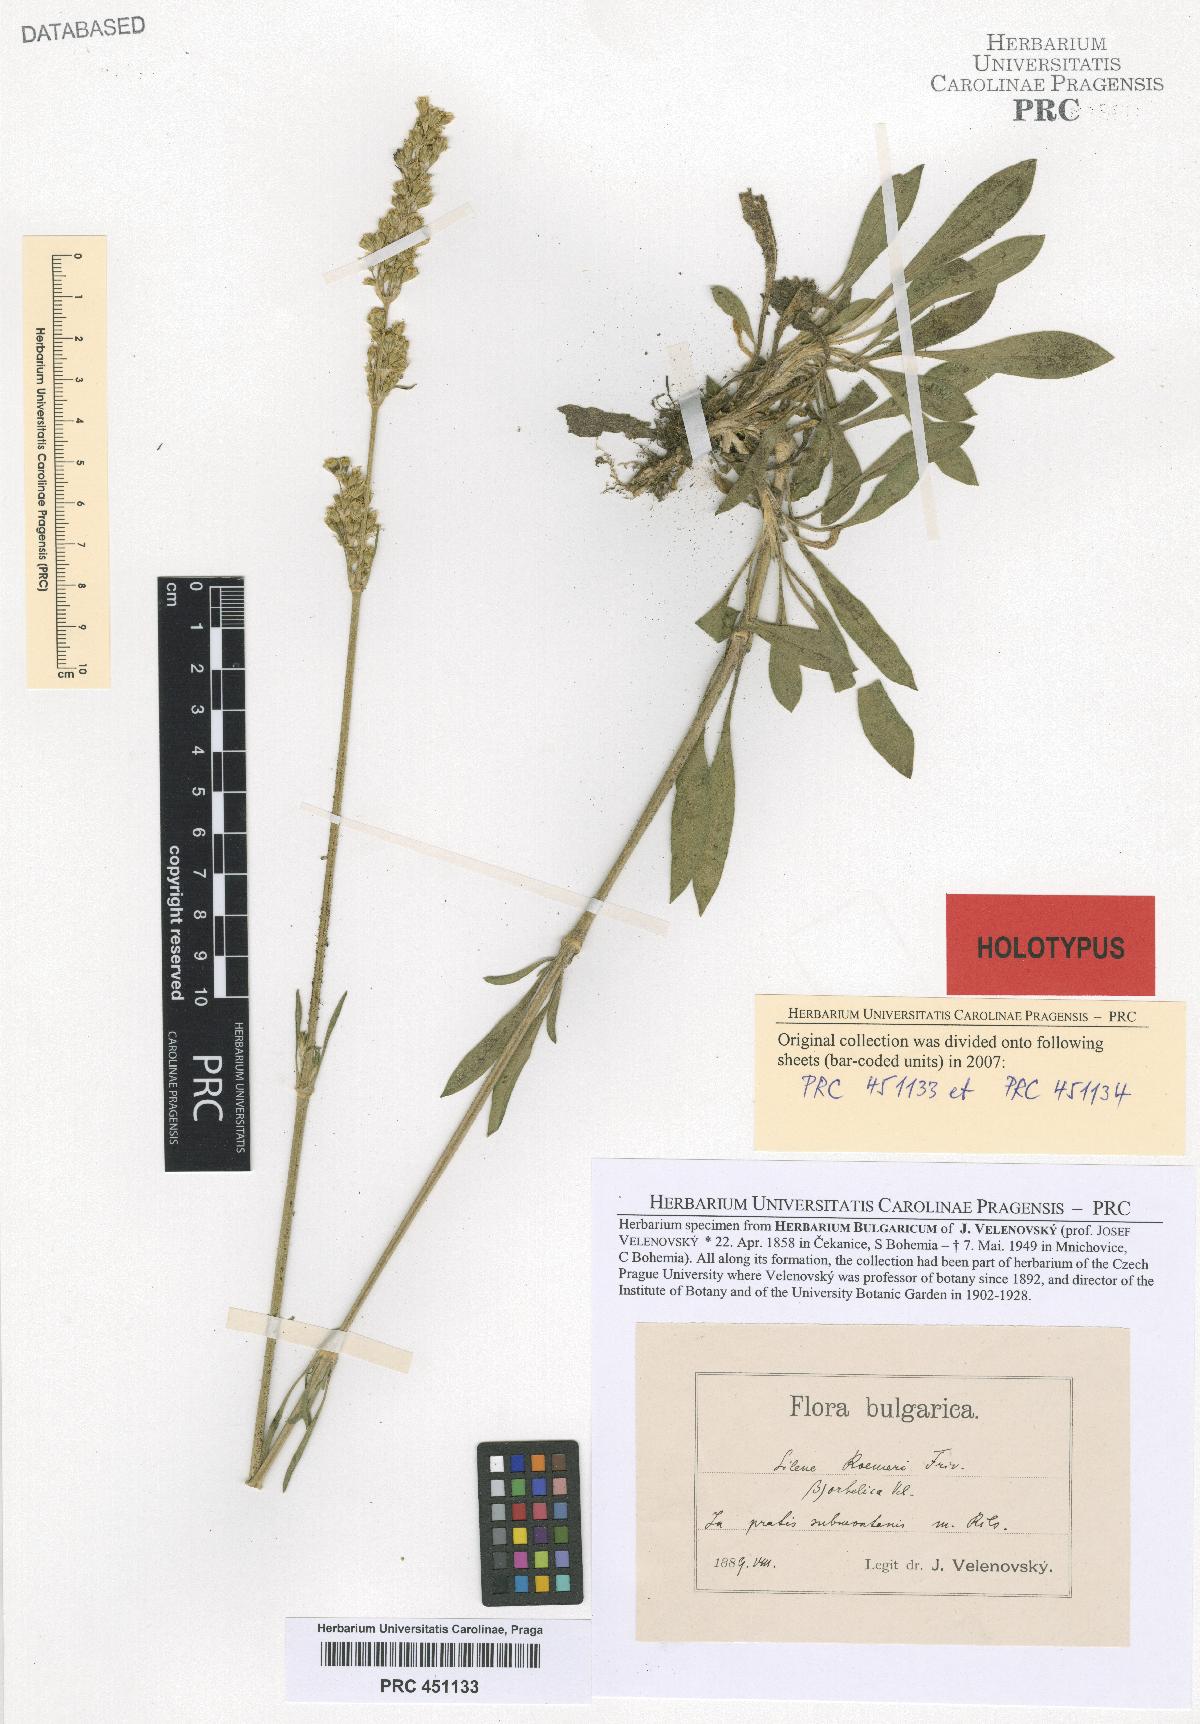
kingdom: Plantae
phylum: Tracheophyta
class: Magnoliopsida
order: Caryophyllales
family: Caryophyllaceae
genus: Silene
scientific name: Silene roemeri
